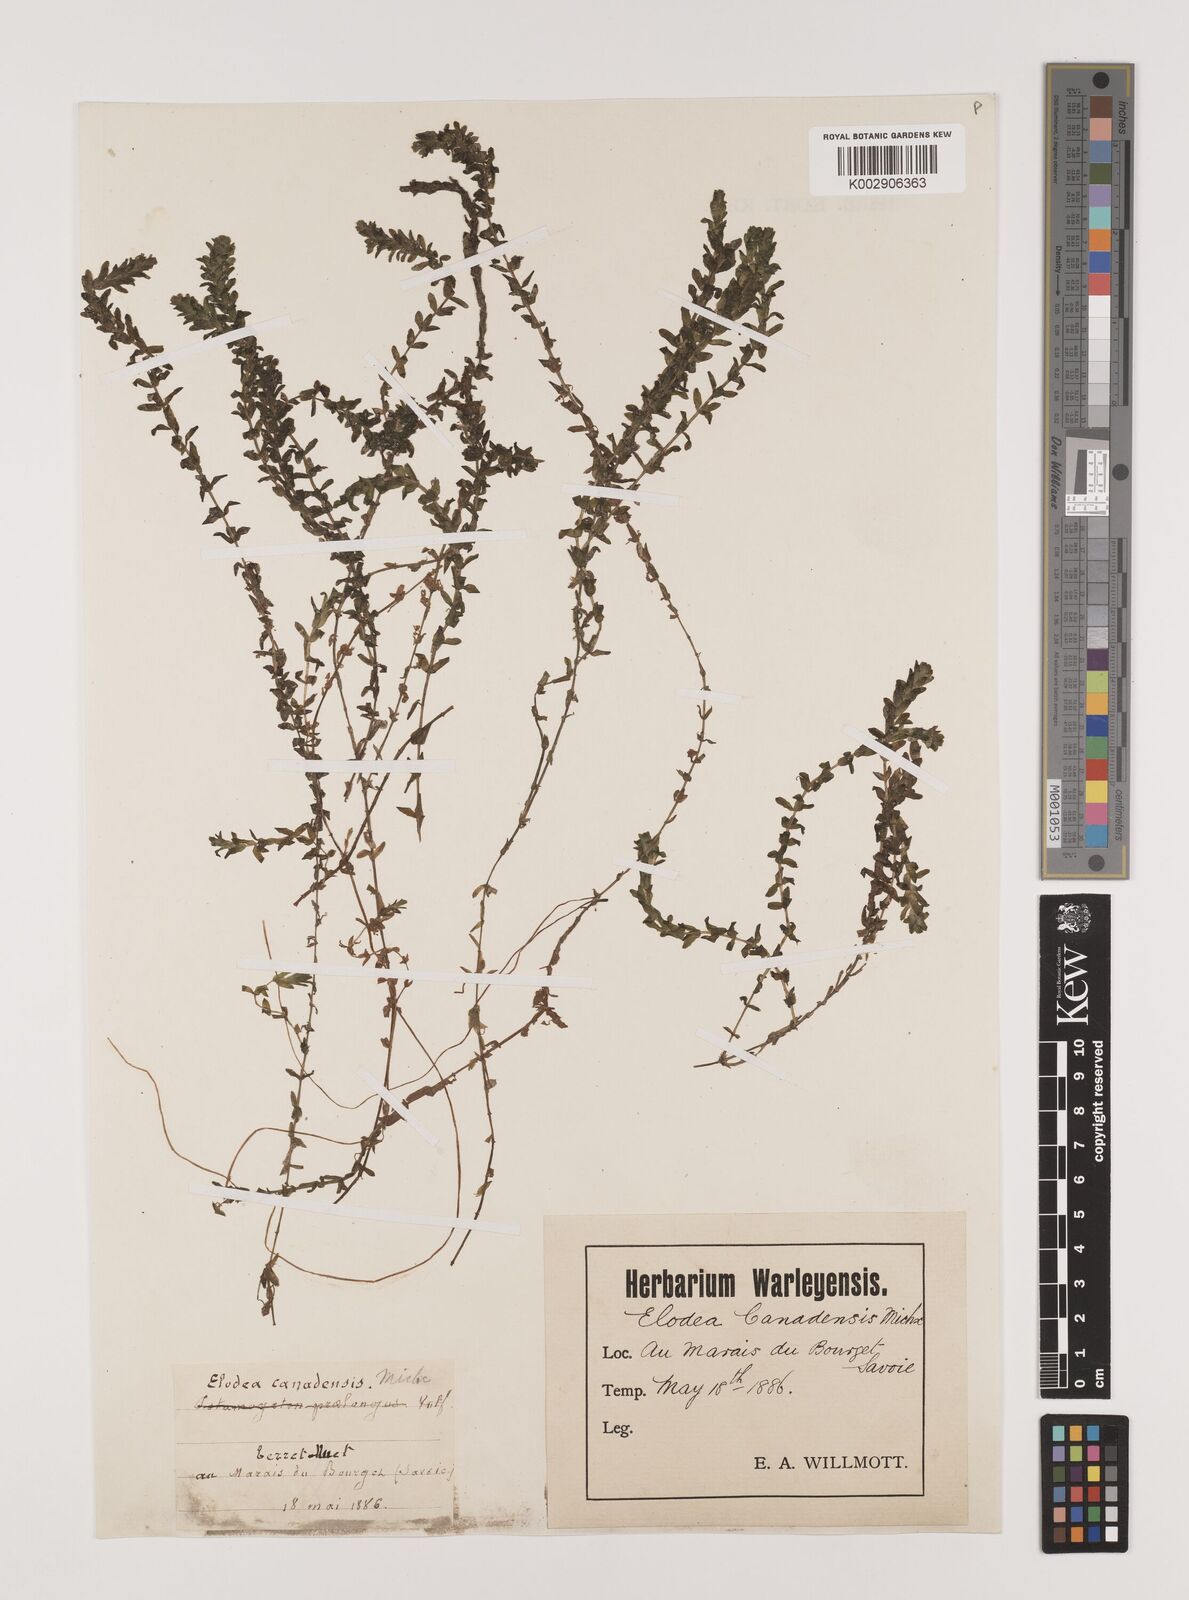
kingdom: Plantae
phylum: Tracheophyta
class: Liliopsida
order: Alismatales
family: Hydrocharitaceae
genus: Elodea
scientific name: Elodea canadensis
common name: Canadian waterweed
